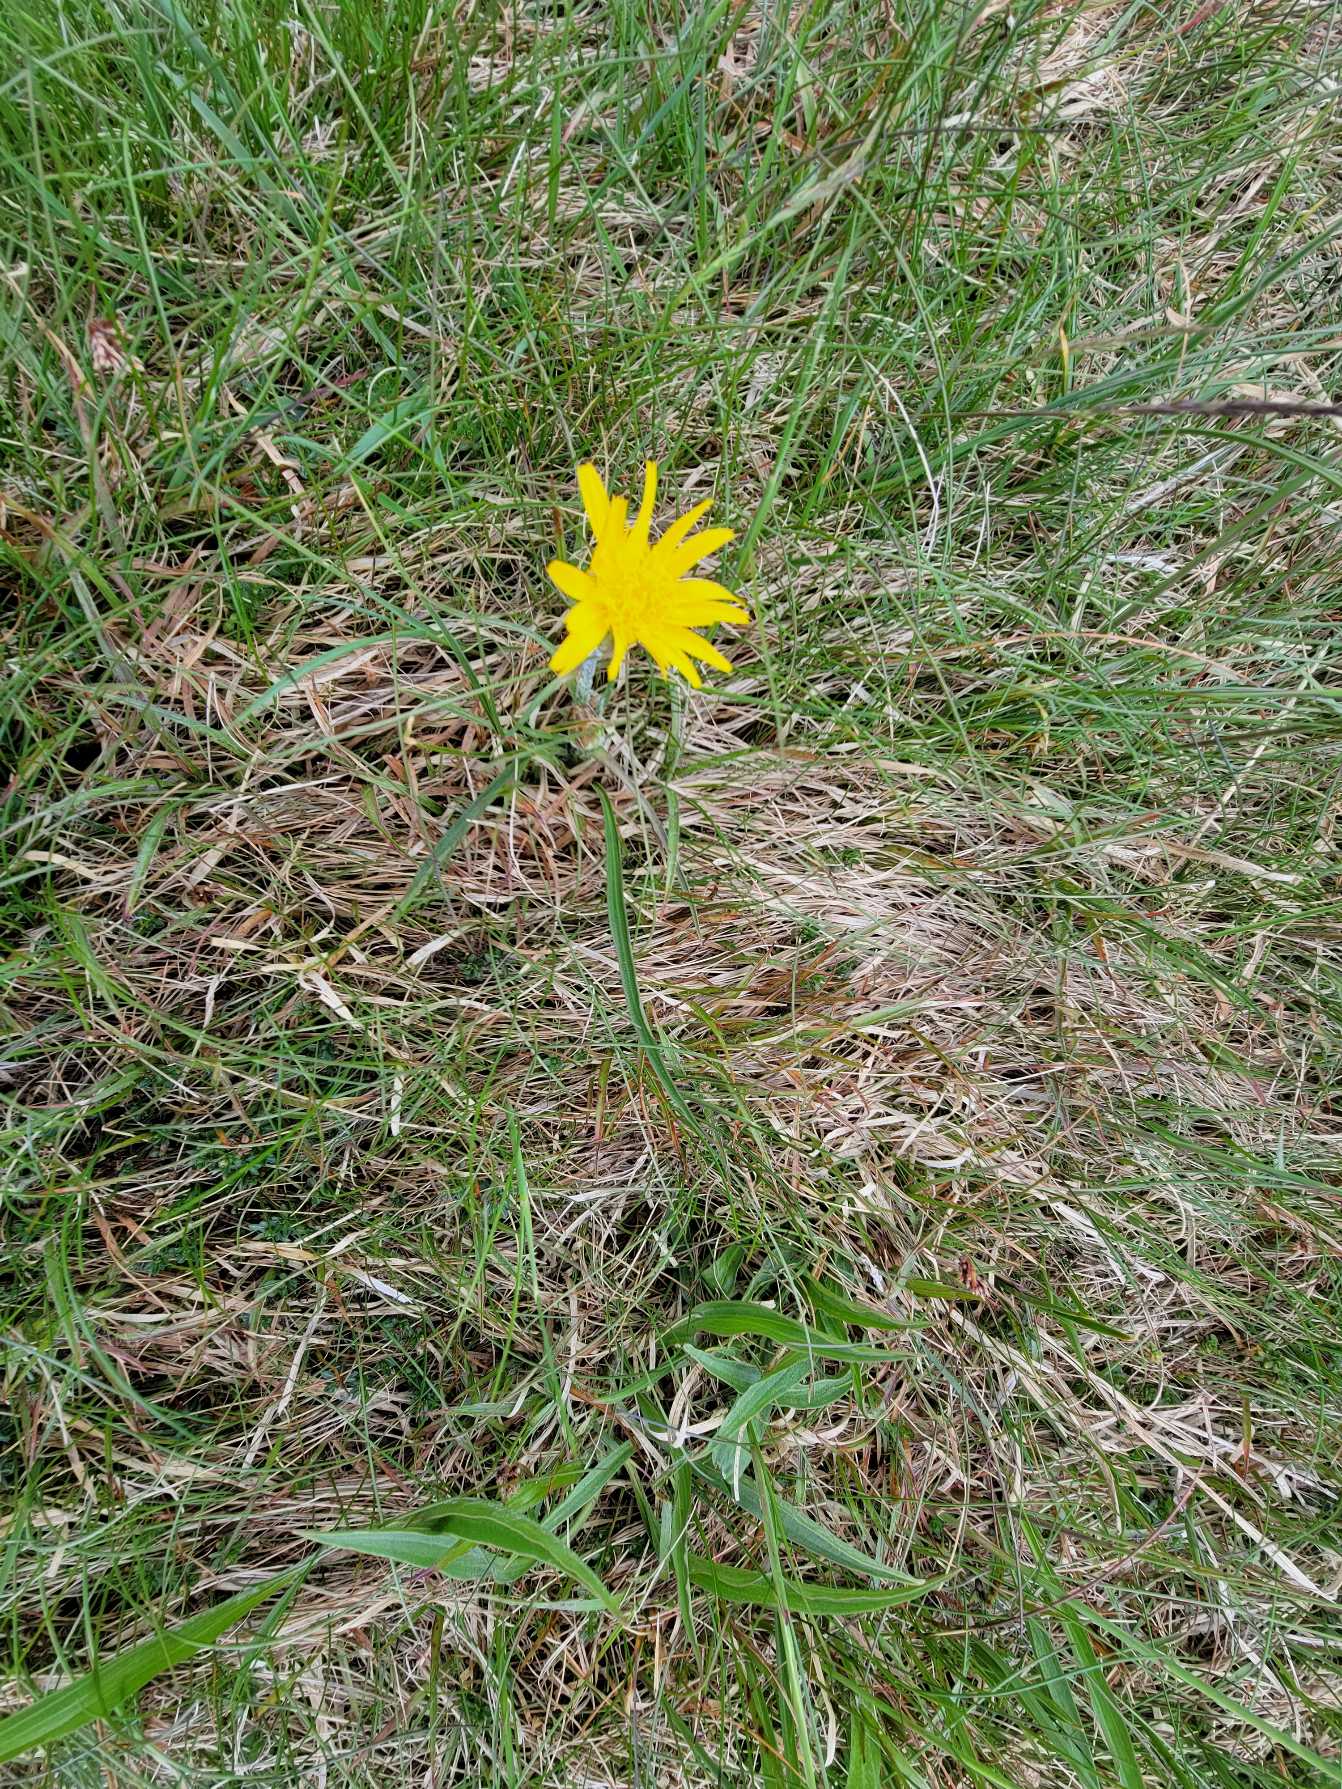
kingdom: Plantae
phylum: Tracheophyta
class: Magnoliopsida
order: Asterales
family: Asteraceae
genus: Scorzonera
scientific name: Scorzonera humilis
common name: Lav skorsoner
